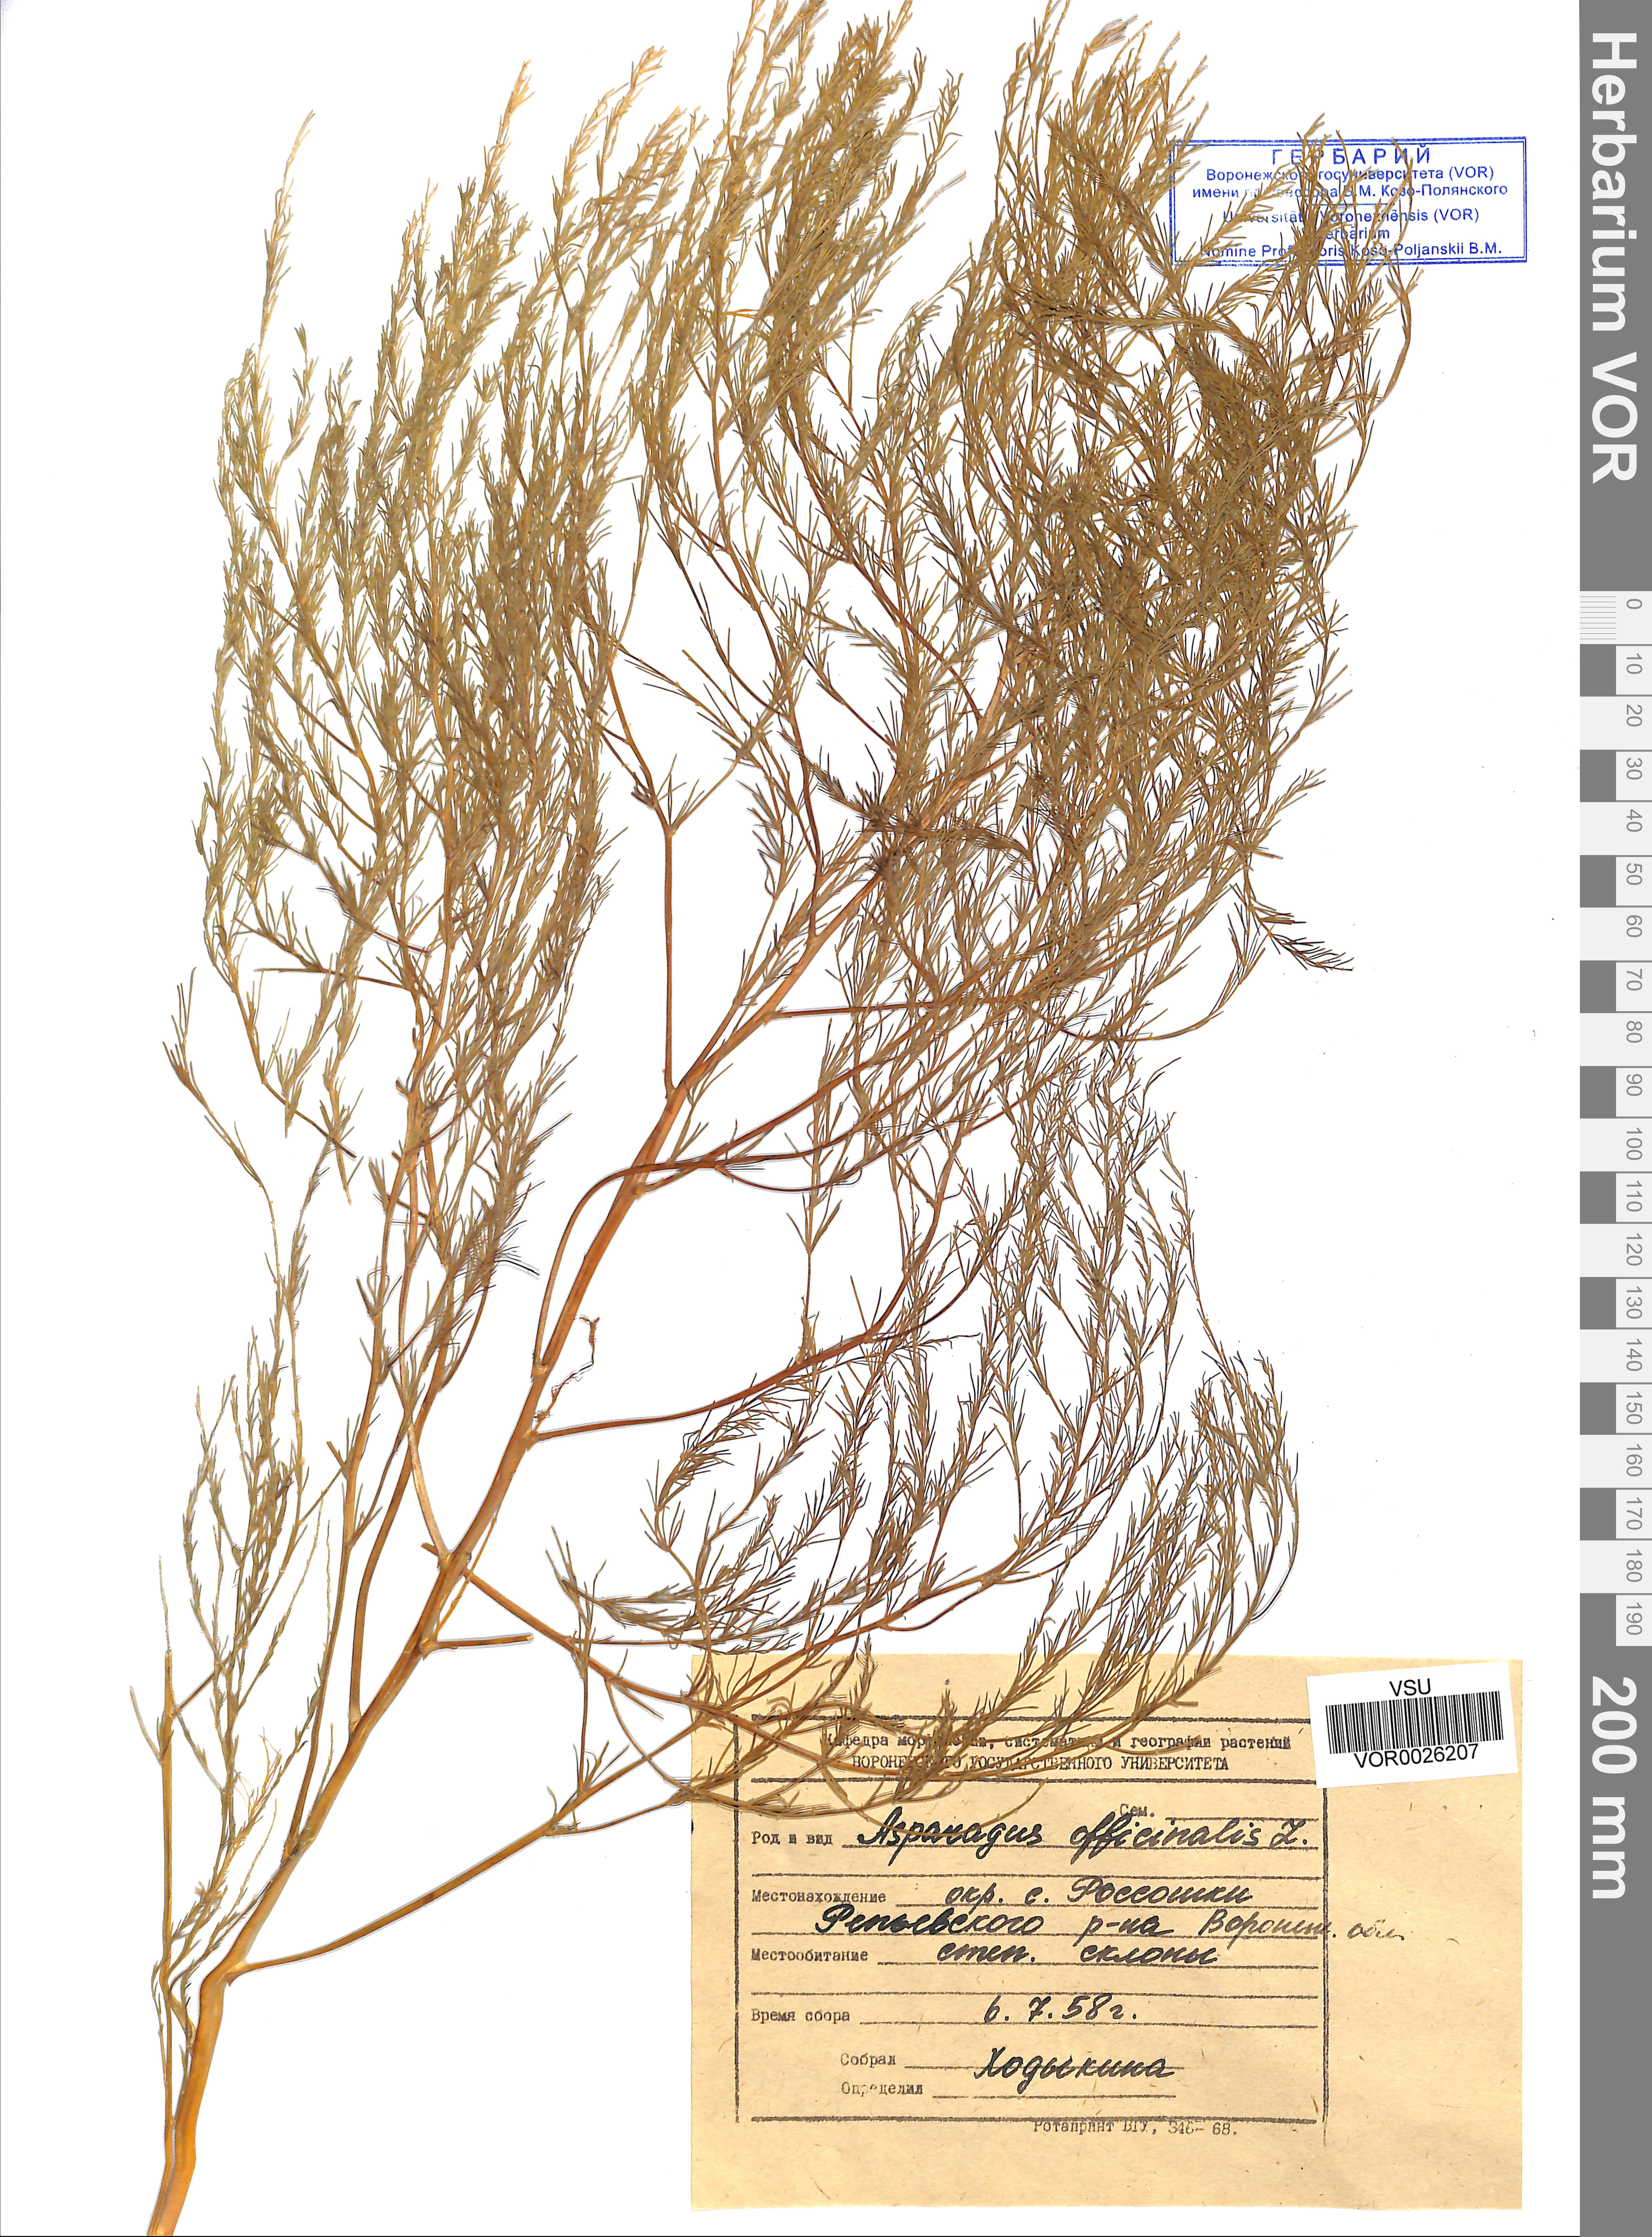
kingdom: Plantae
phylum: Tracheophyta
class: Liliopsida
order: Asparagales
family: Asparagaceae
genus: Asparagus
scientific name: Asparagus officinalis
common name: Garden asparagus
